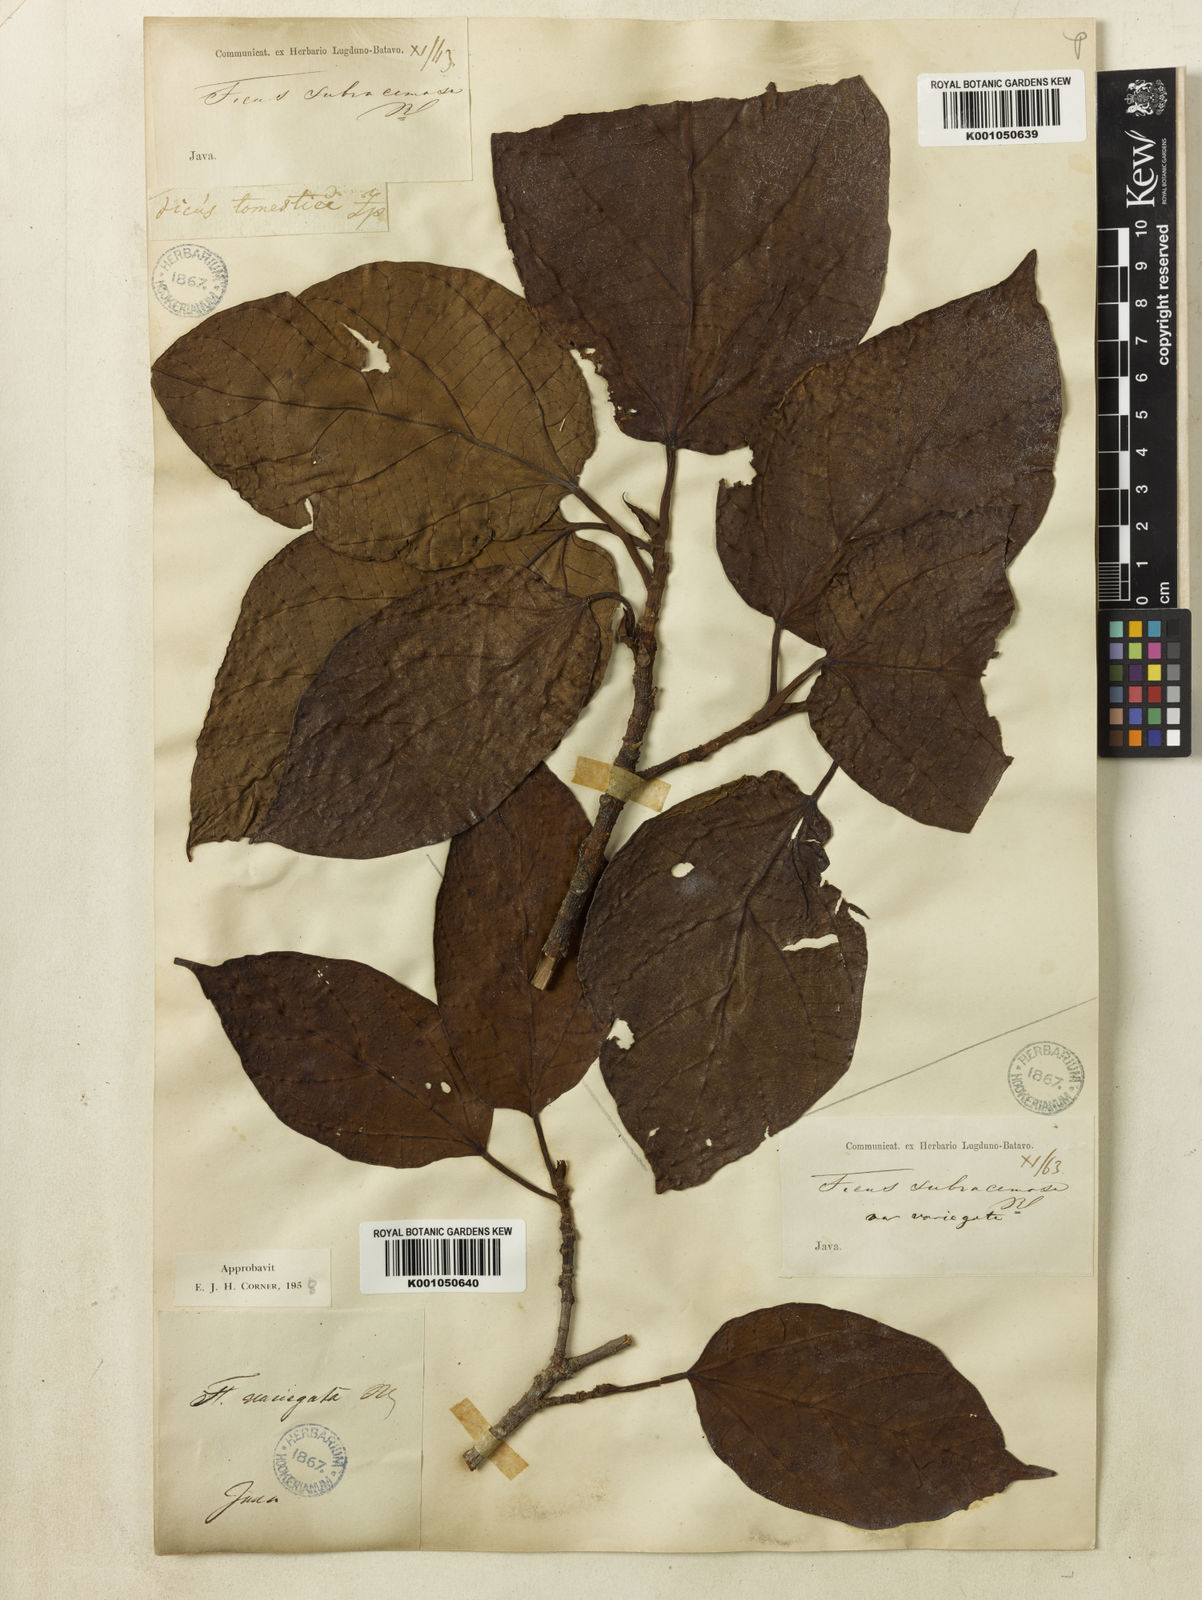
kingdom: Plantae
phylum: Tracheophyta
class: Magnoliopsida
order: Rosales
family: Moraceae
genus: Ficus
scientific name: Ficus variegata
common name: Variegated fig
